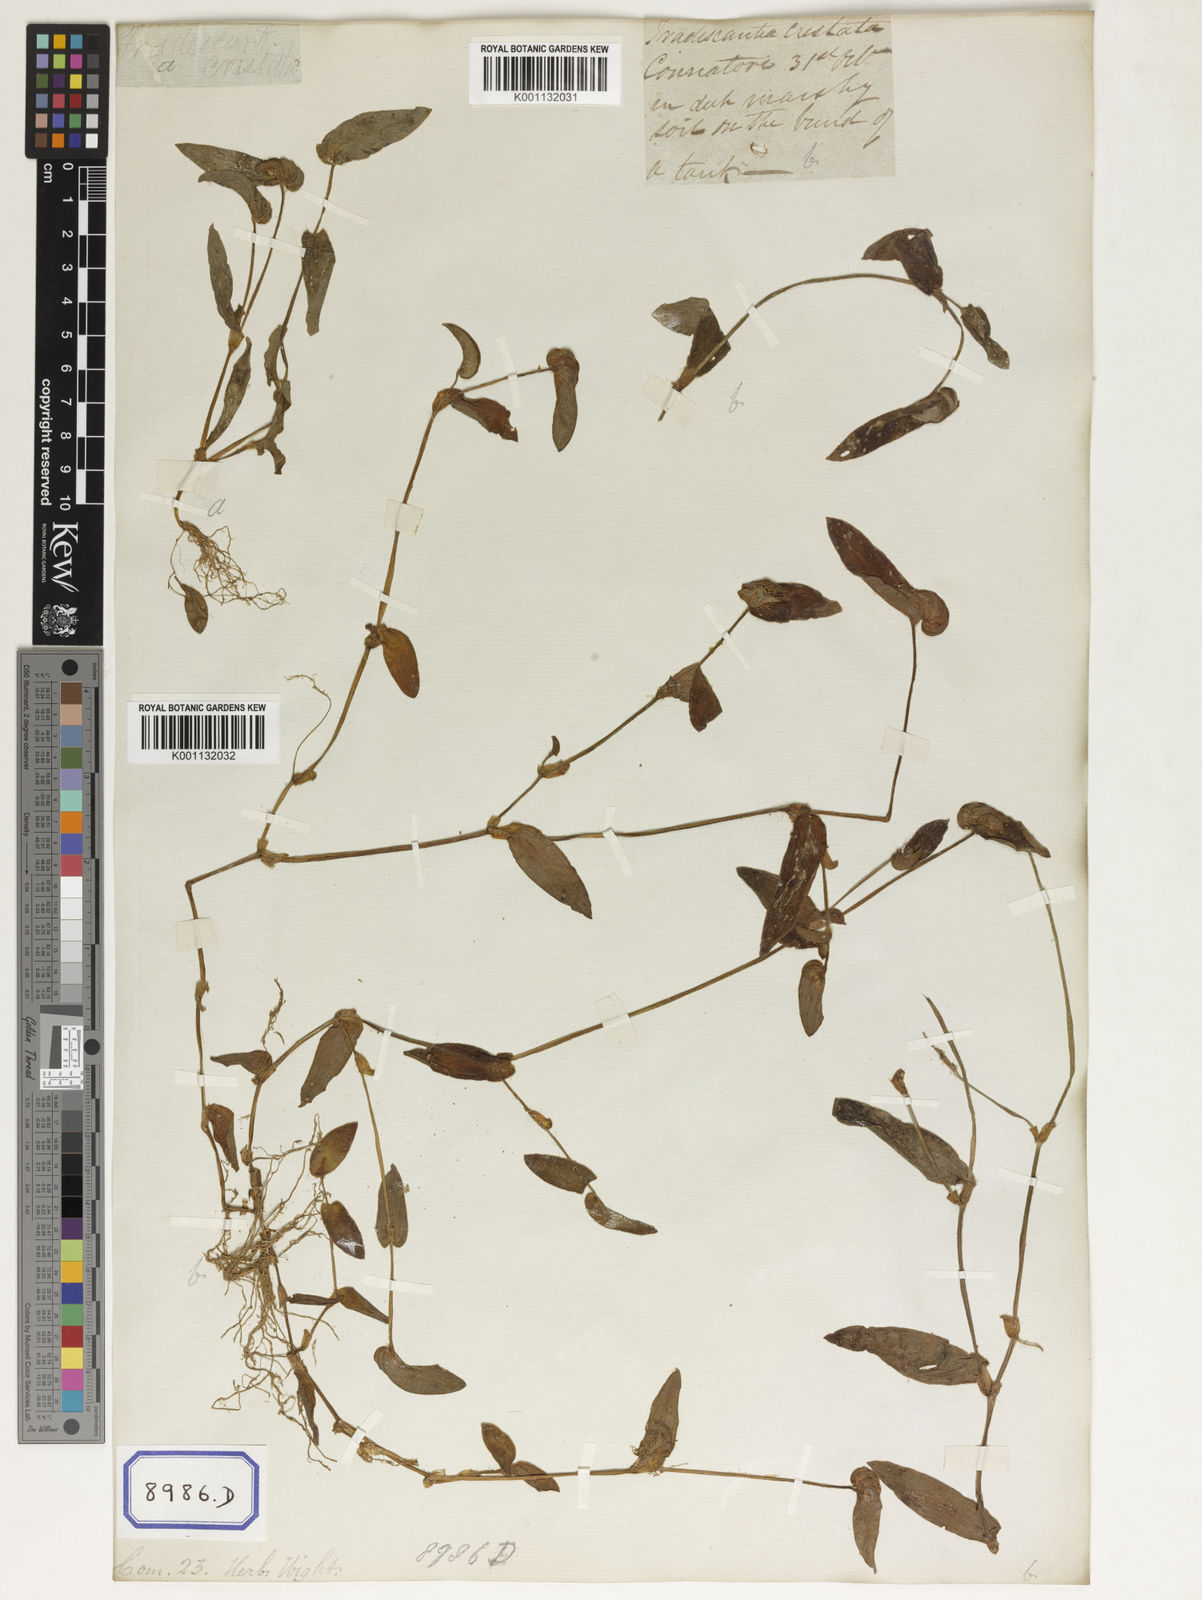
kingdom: Plantae
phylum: Tracheophyta
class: Liliopsida
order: Commelinales
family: Commelinaceae
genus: Cyanotis
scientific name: Cyanotis cristata
